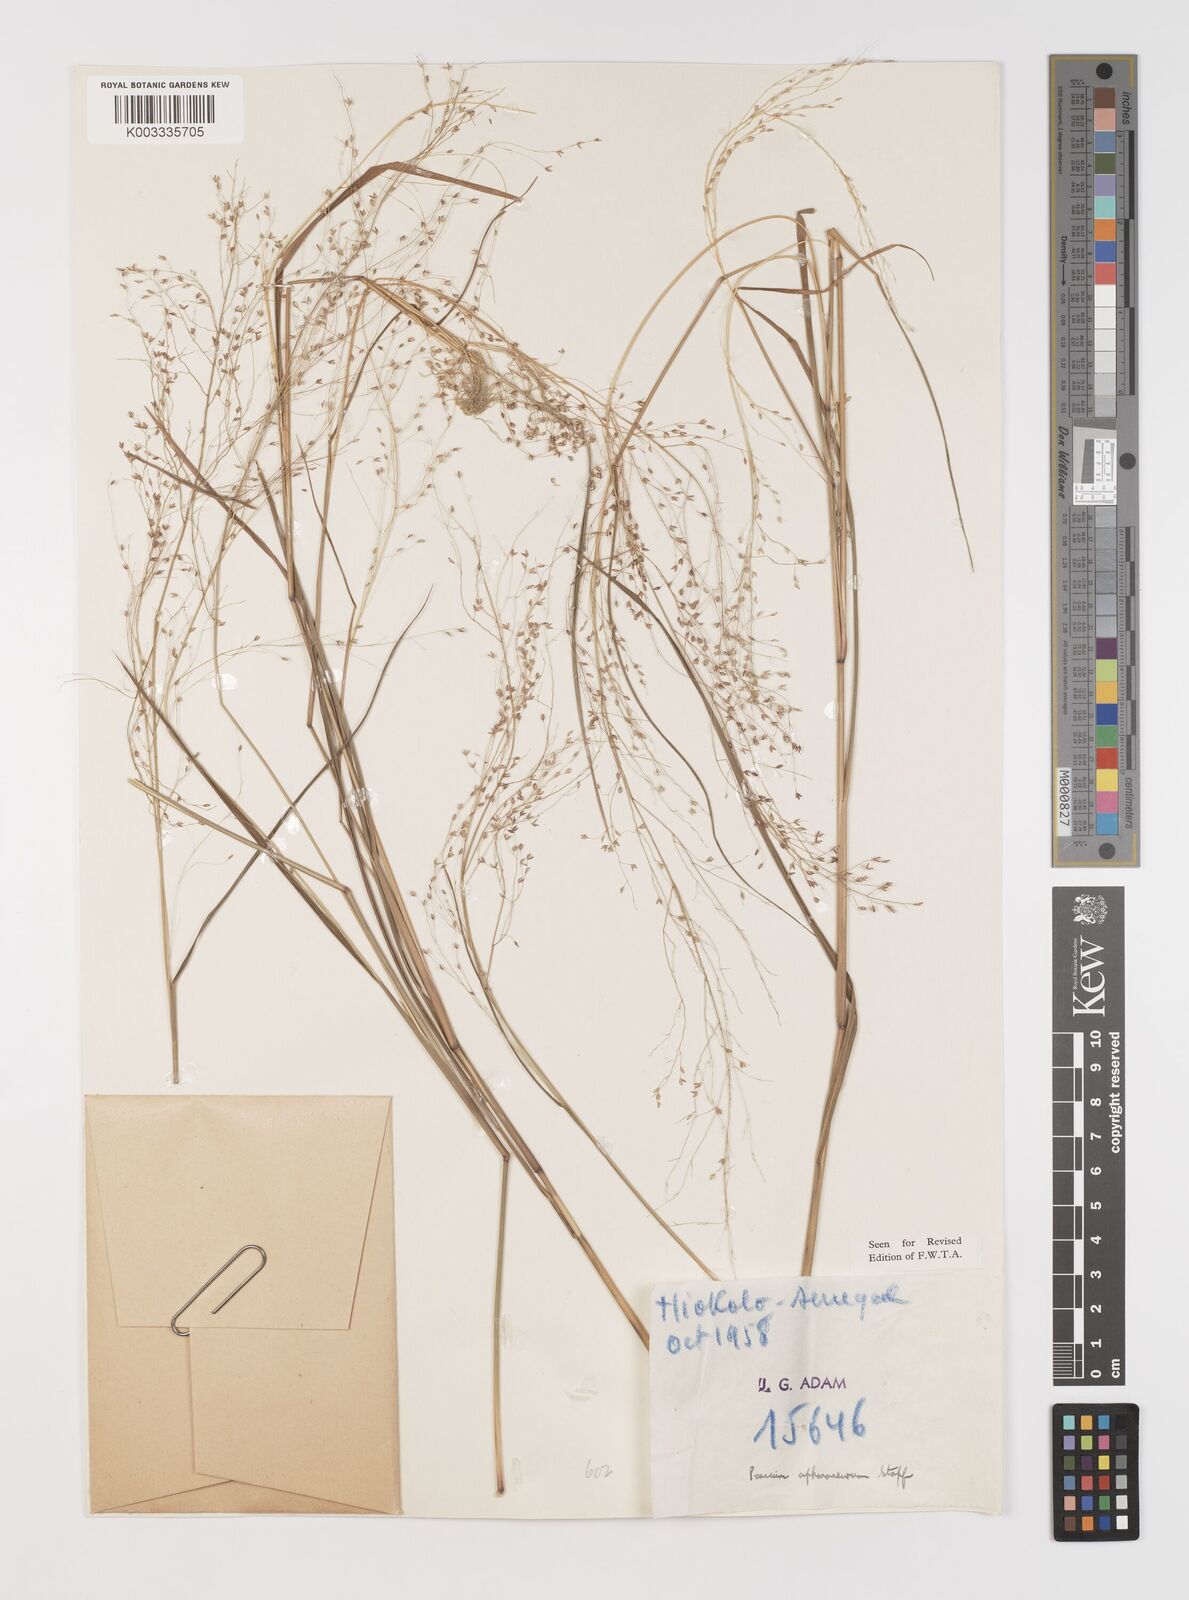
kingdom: Plantae
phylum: Tracheophyta
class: Liliopsida
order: Poales
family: Poaceae
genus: Panicum
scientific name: Panicum fluviicola
